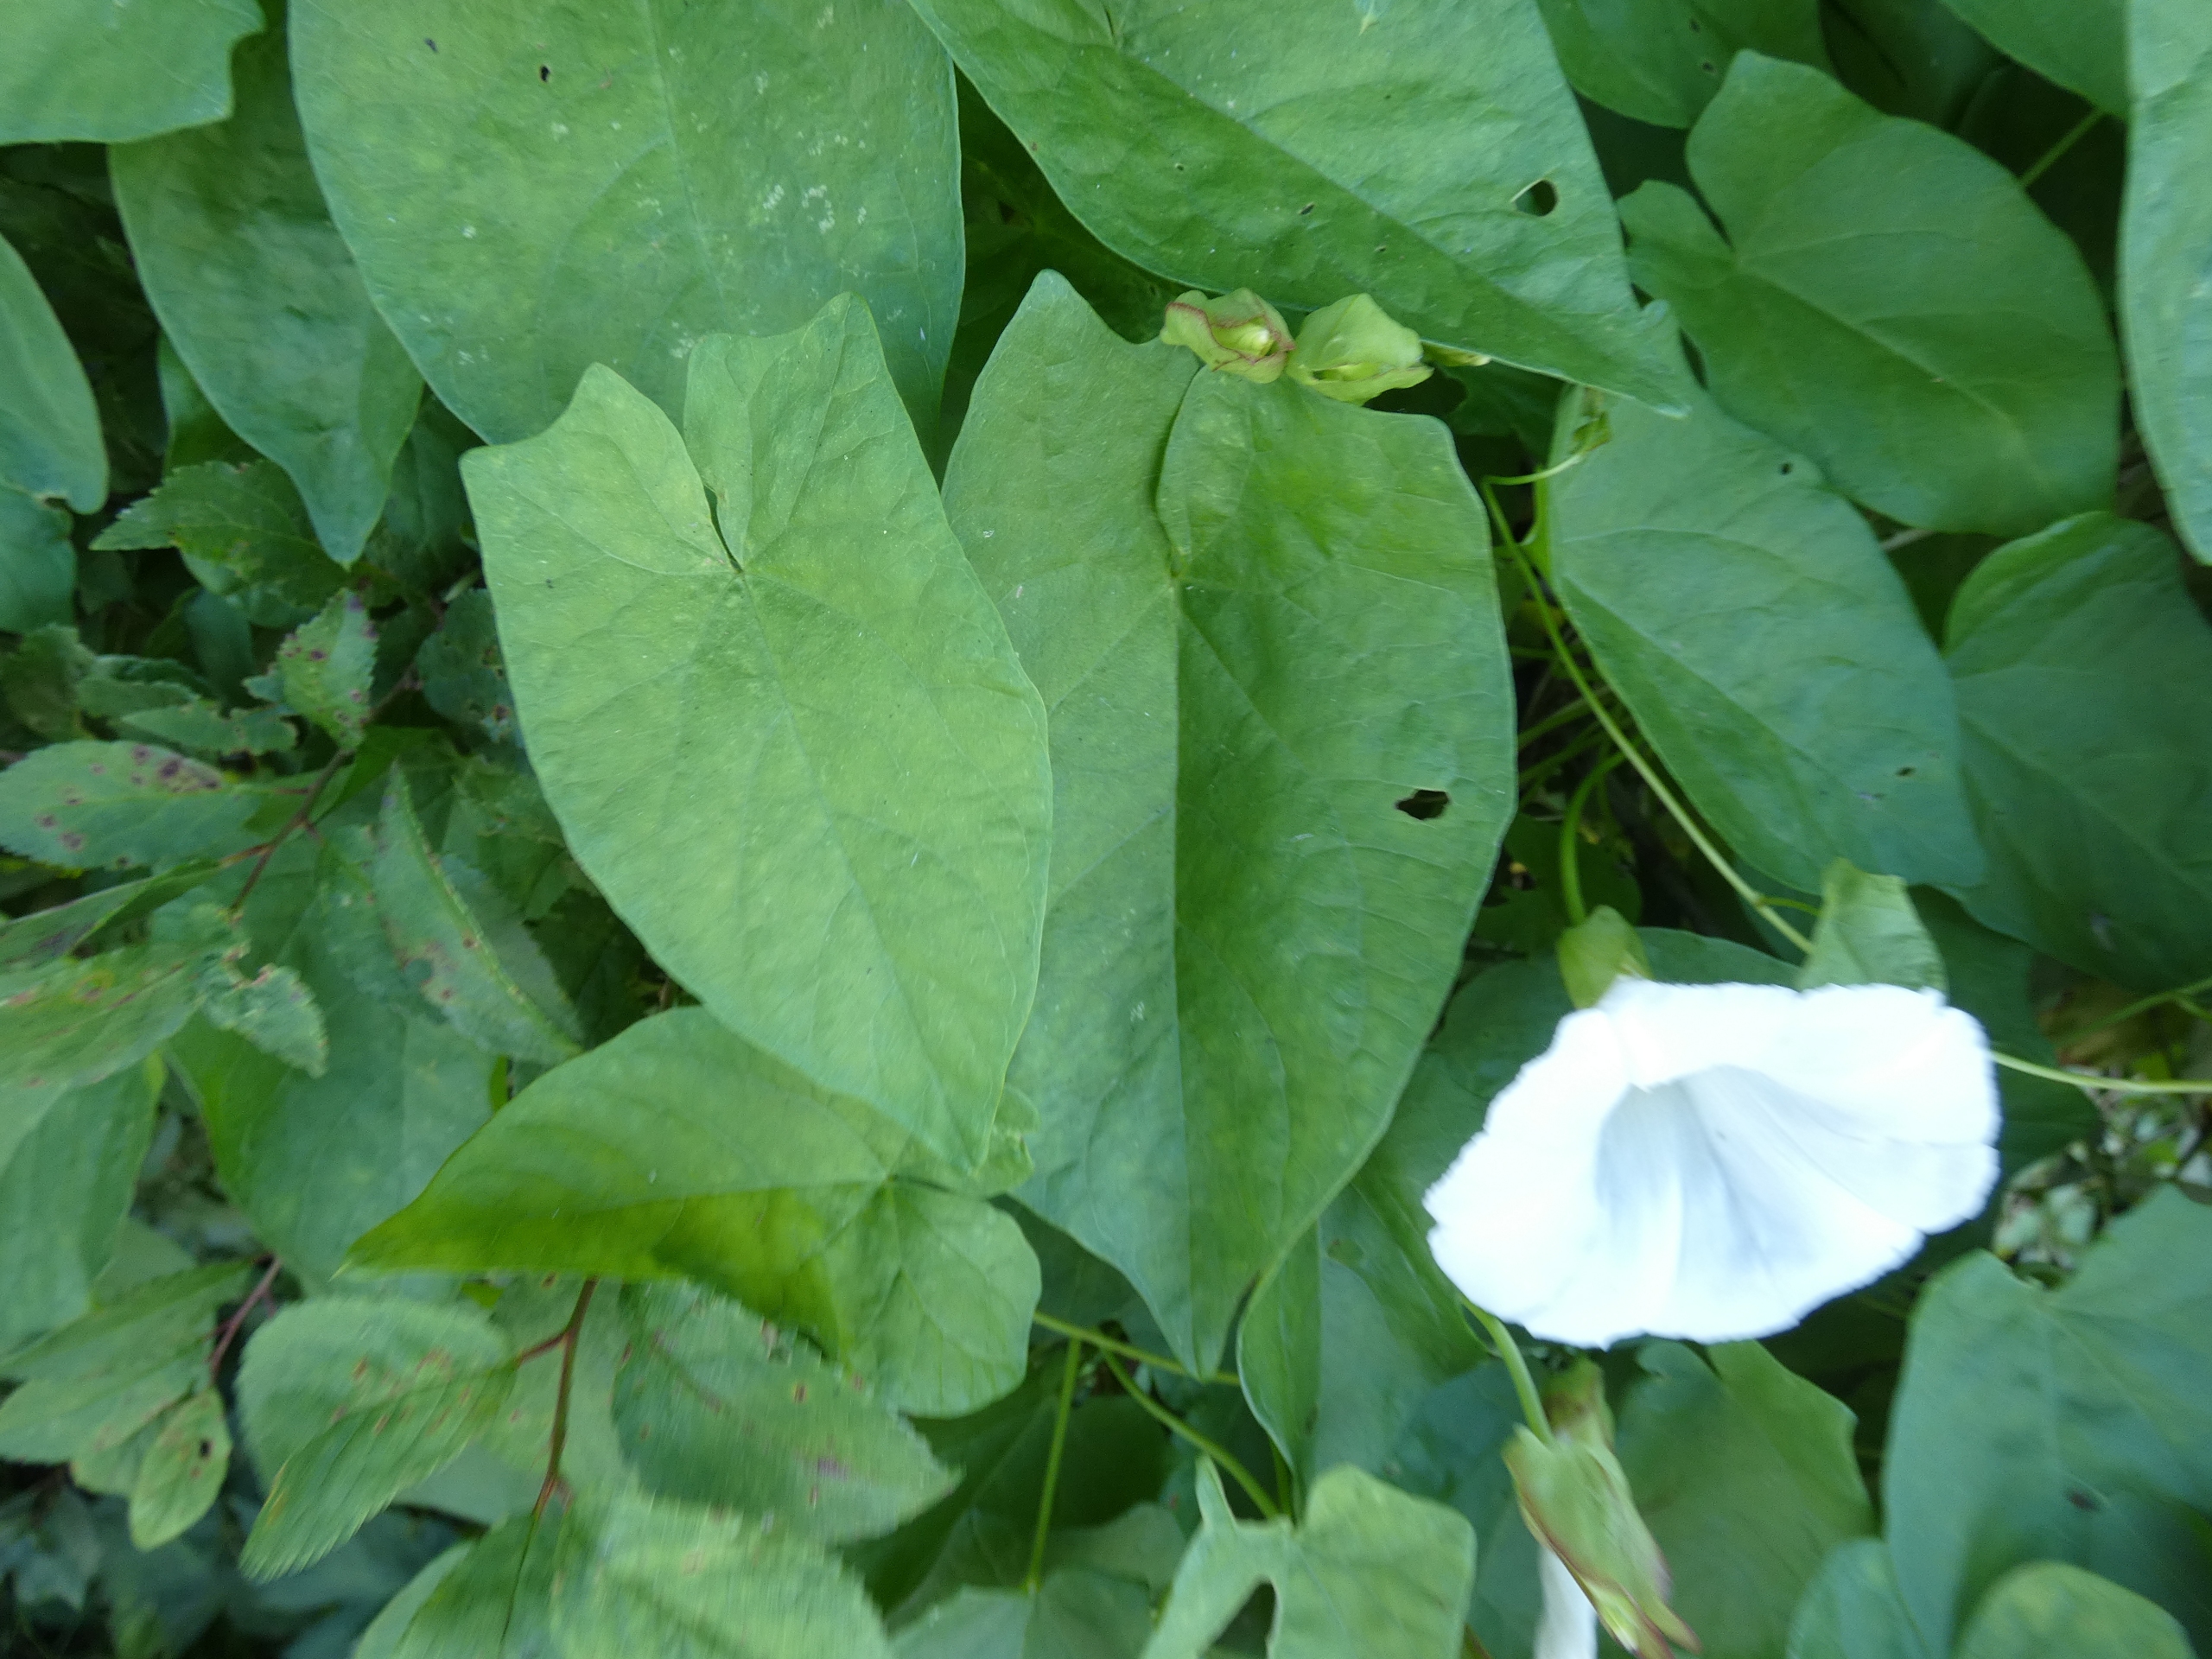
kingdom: Plantae
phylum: Tracheophyta
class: Magnoliopsida
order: Solanales
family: Convolvulaceae
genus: Calystegia
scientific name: Calystegia sepium
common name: Gærde-snerle
